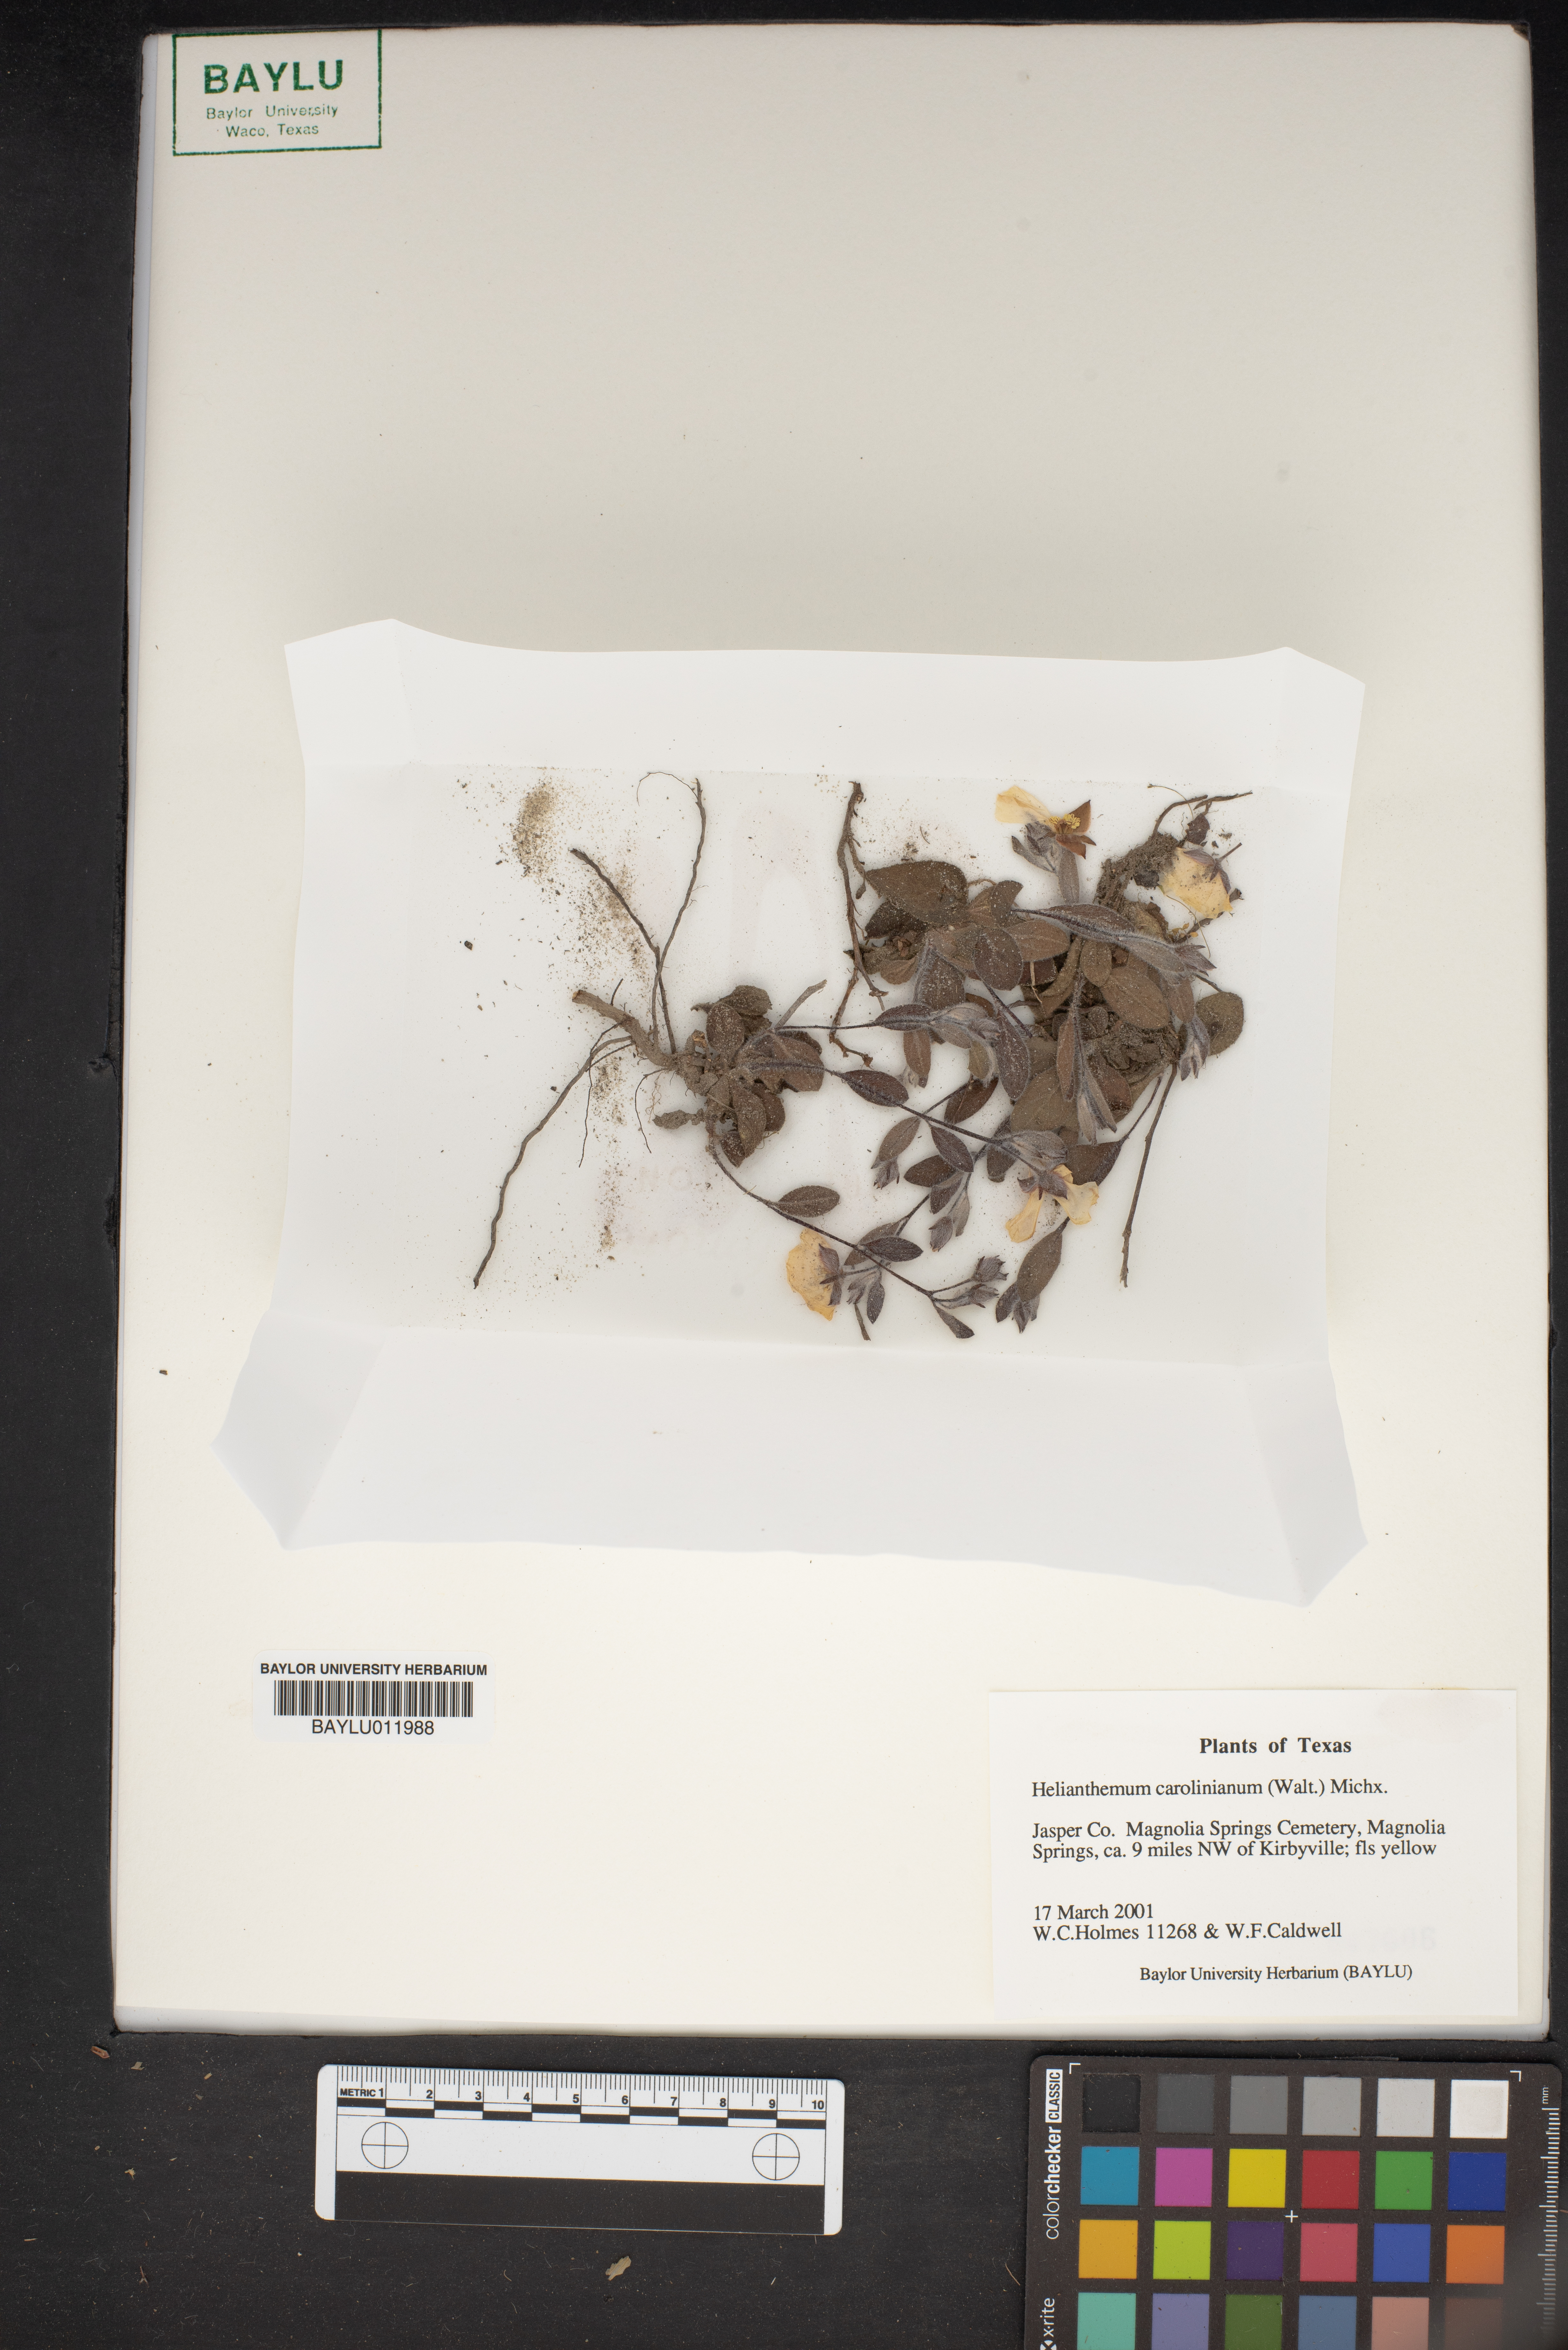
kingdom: Plantae
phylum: Tracheophyta
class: Magnoliopsida
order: Malvales
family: Cistaceae
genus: Crocanthemum
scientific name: Crocanthemum carolinianum
